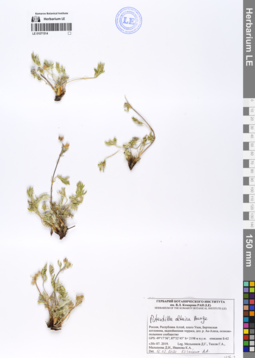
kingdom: Plantae
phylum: Tracheophyta
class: Magnoliopsida
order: Rosales
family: Rosaceae
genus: Potentilla
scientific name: Potentilla altaica
